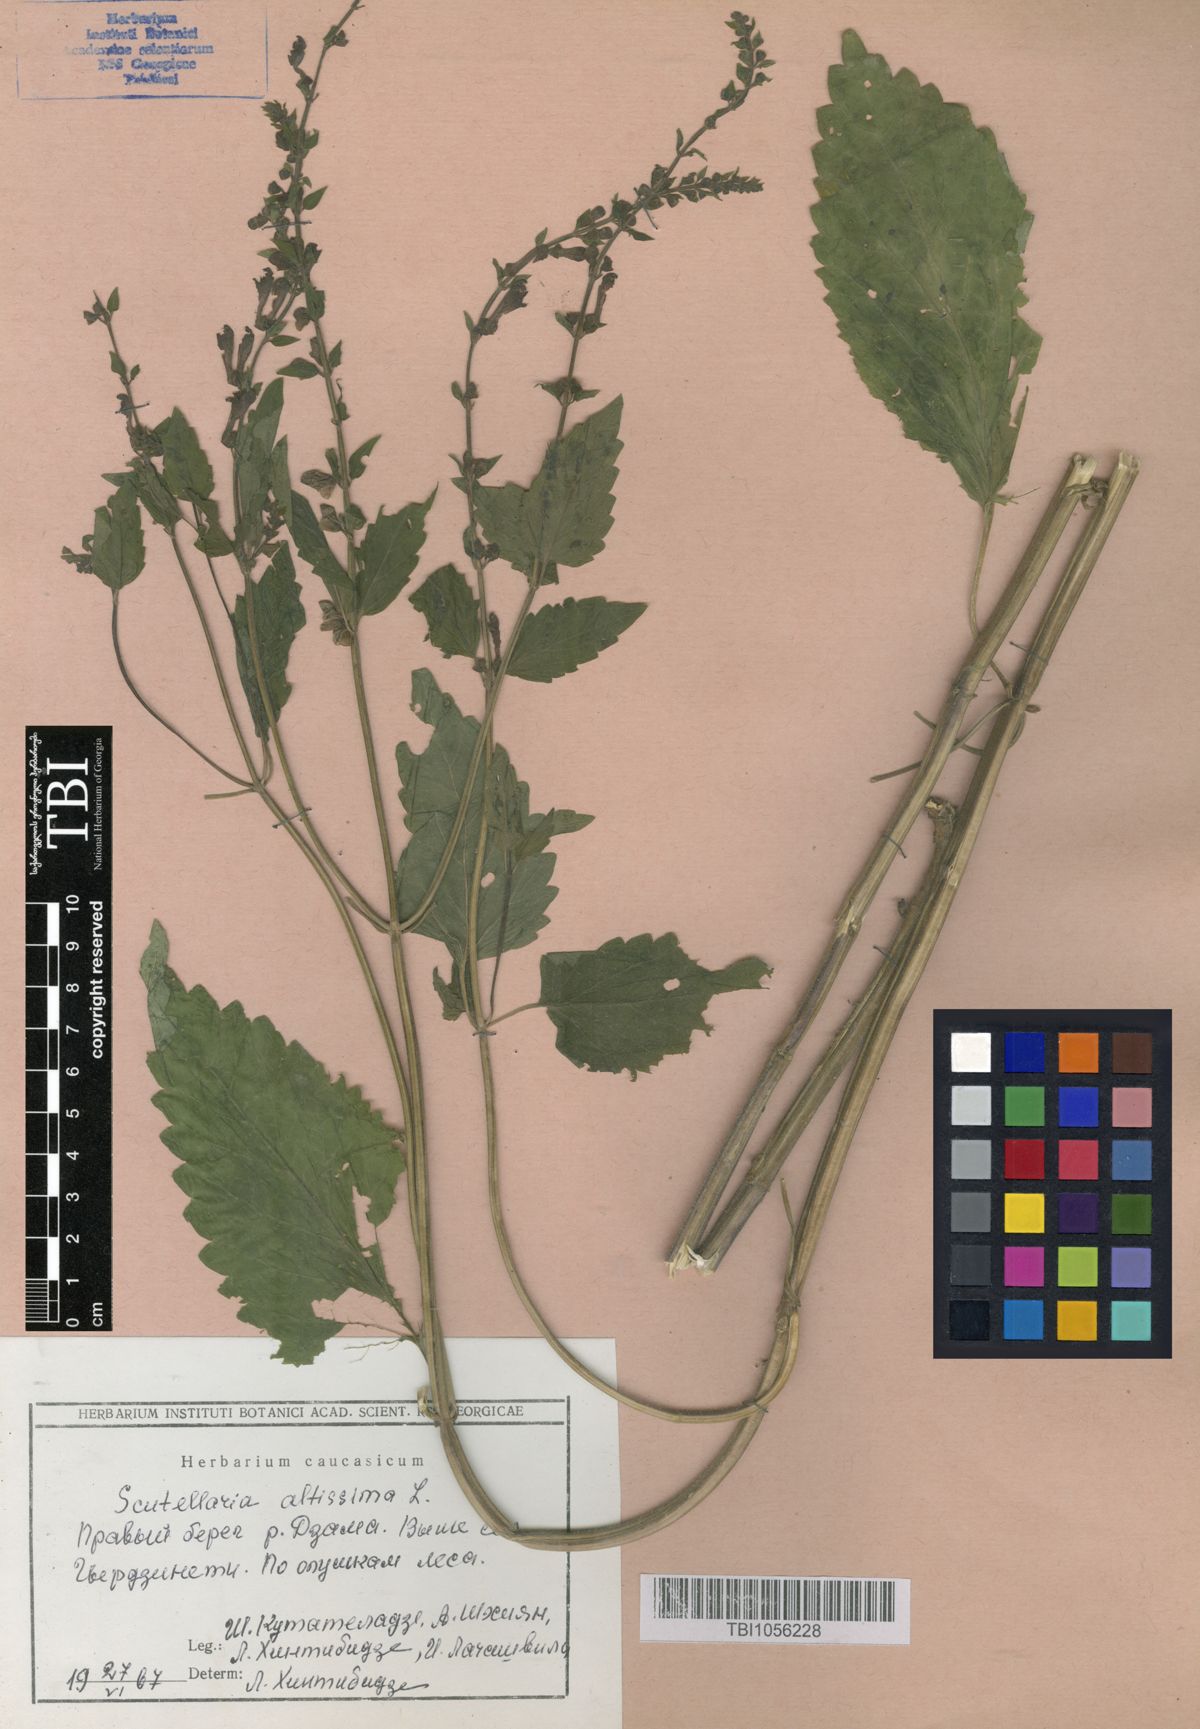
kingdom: Plantae
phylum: Tracheophyta
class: Magnoliopsida
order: Lamiales
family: Lamiaceae
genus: Scutellaria
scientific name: Scutellaria altissima
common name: Somerset skullcap
